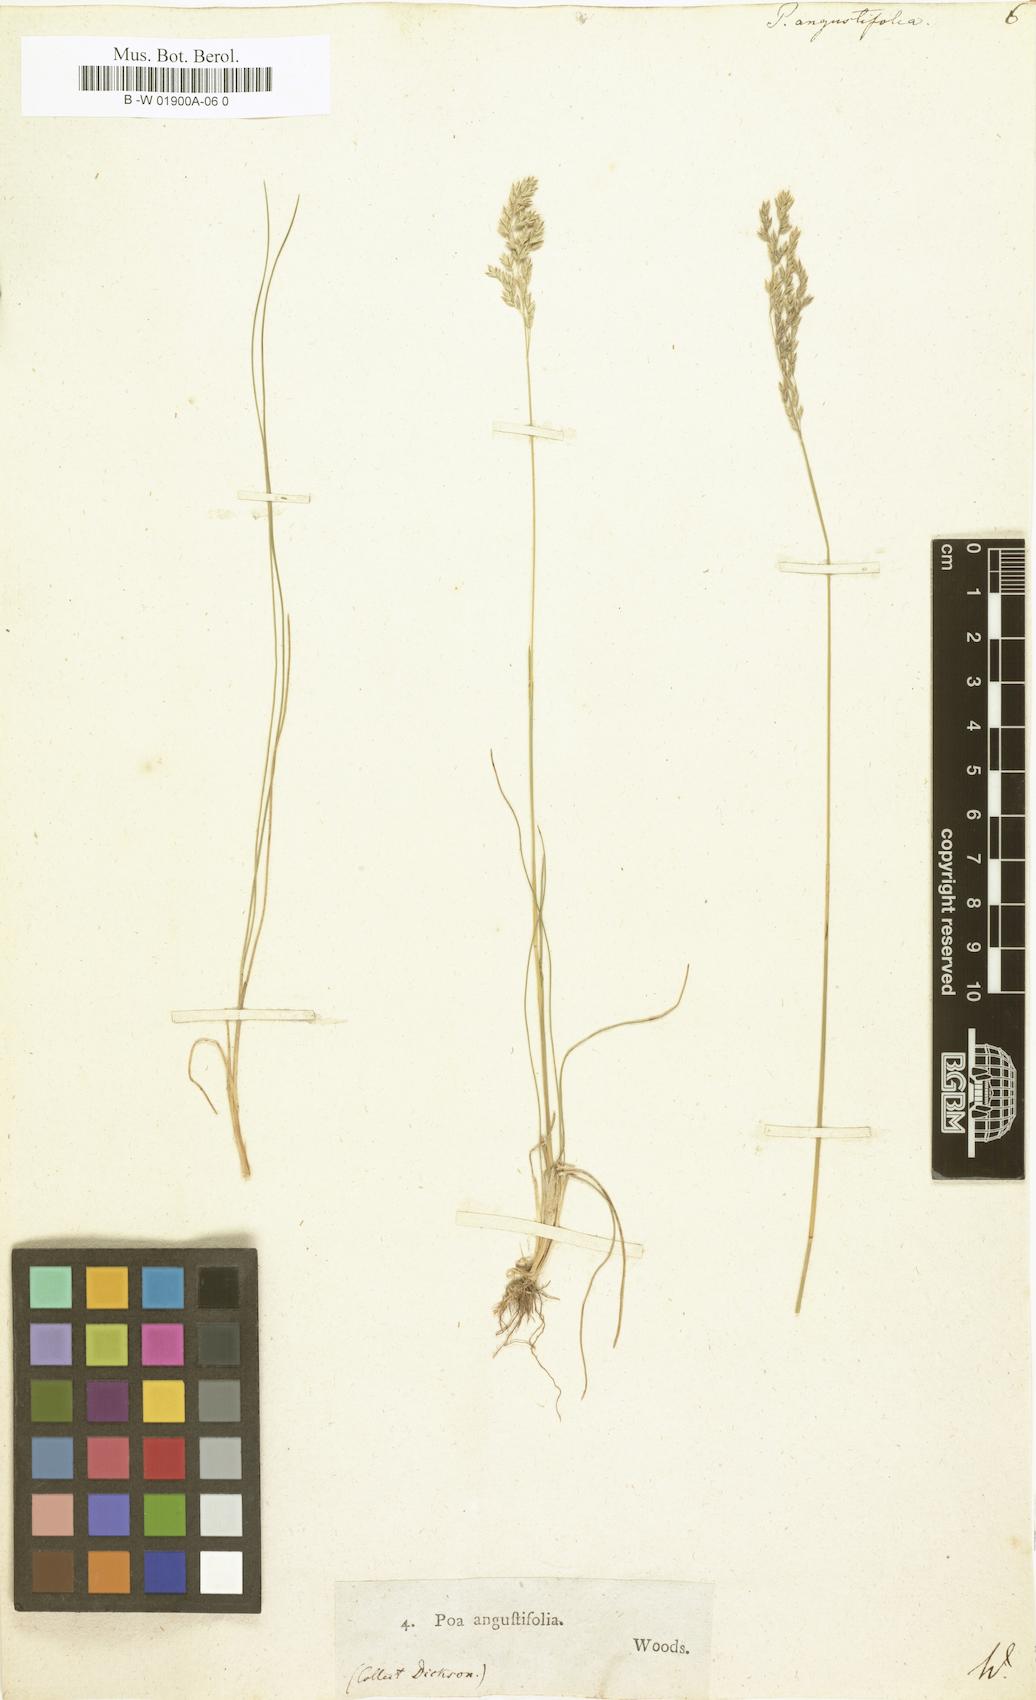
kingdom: Plantae
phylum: Tracheophyta
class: Liliopsida
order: Poales
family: Poaceae
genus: Poa
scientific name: Poa pratensis
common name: Kentucky bluegrass
